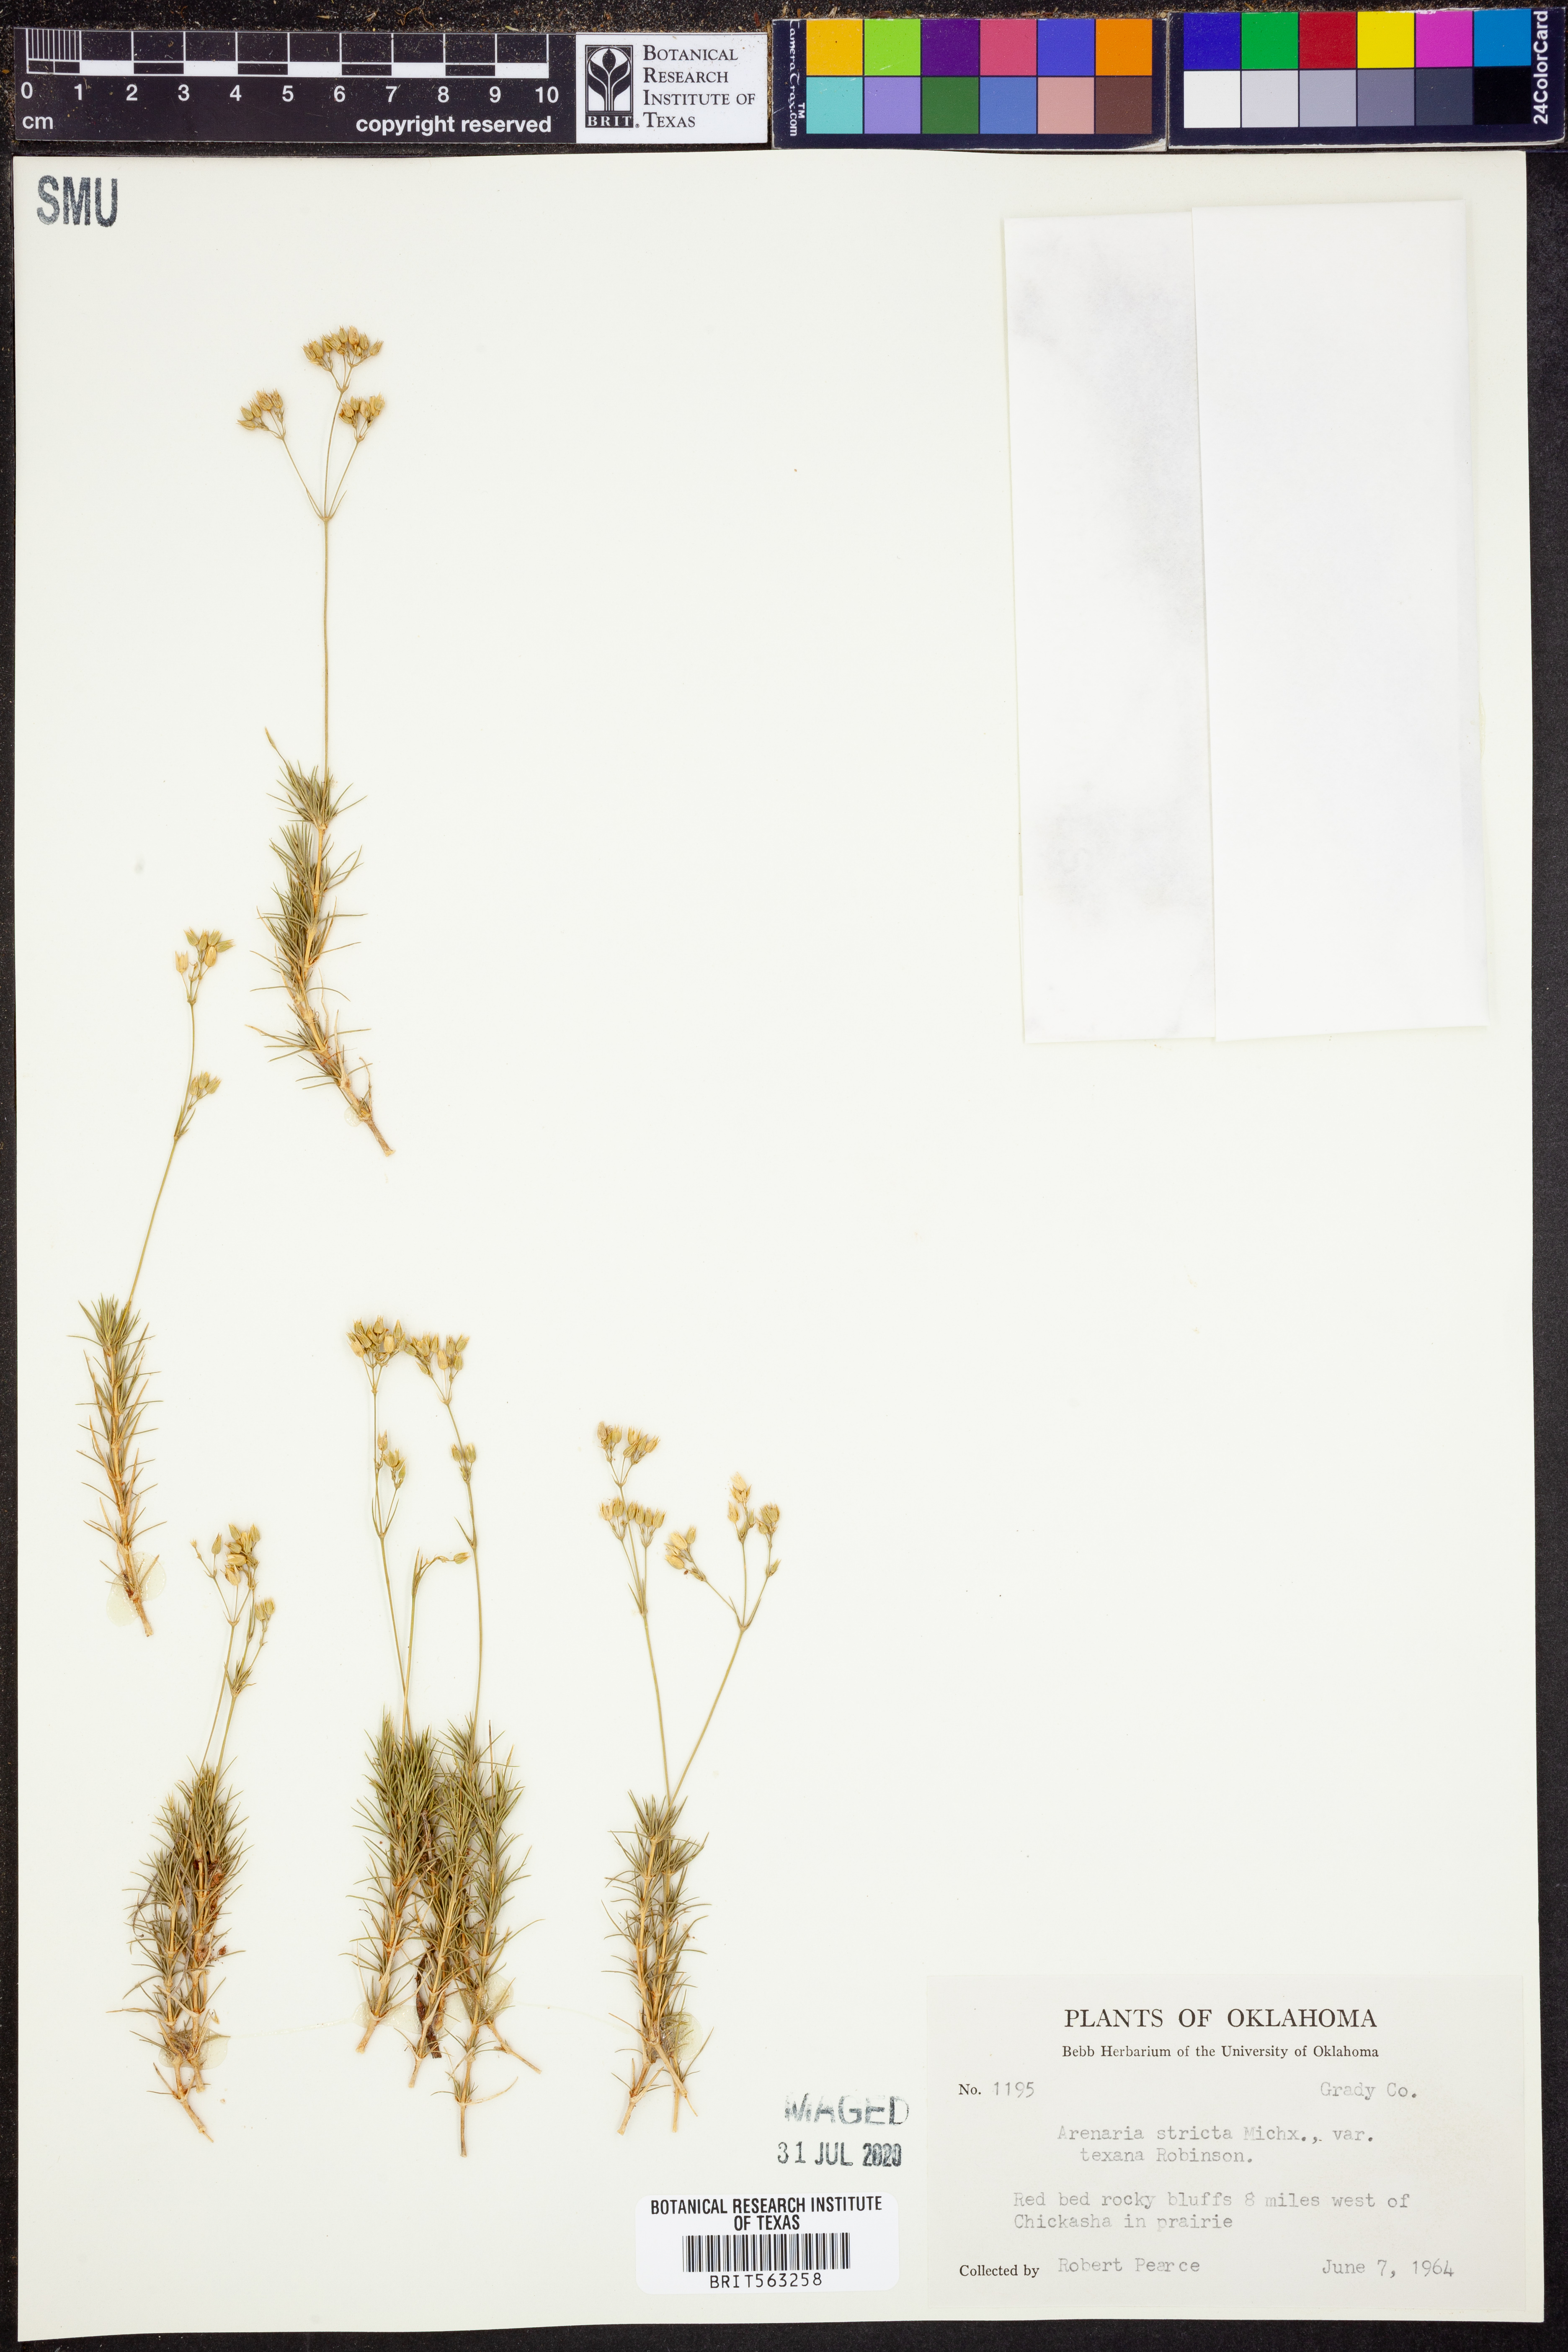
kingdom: Plantae
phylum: Tracheophyta
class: Magnoliopsida
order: Caryophyllales
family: Caryophyllaceae
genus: Sabulina
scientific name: Sabulina michauxii
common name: Michaux's stitchwort
